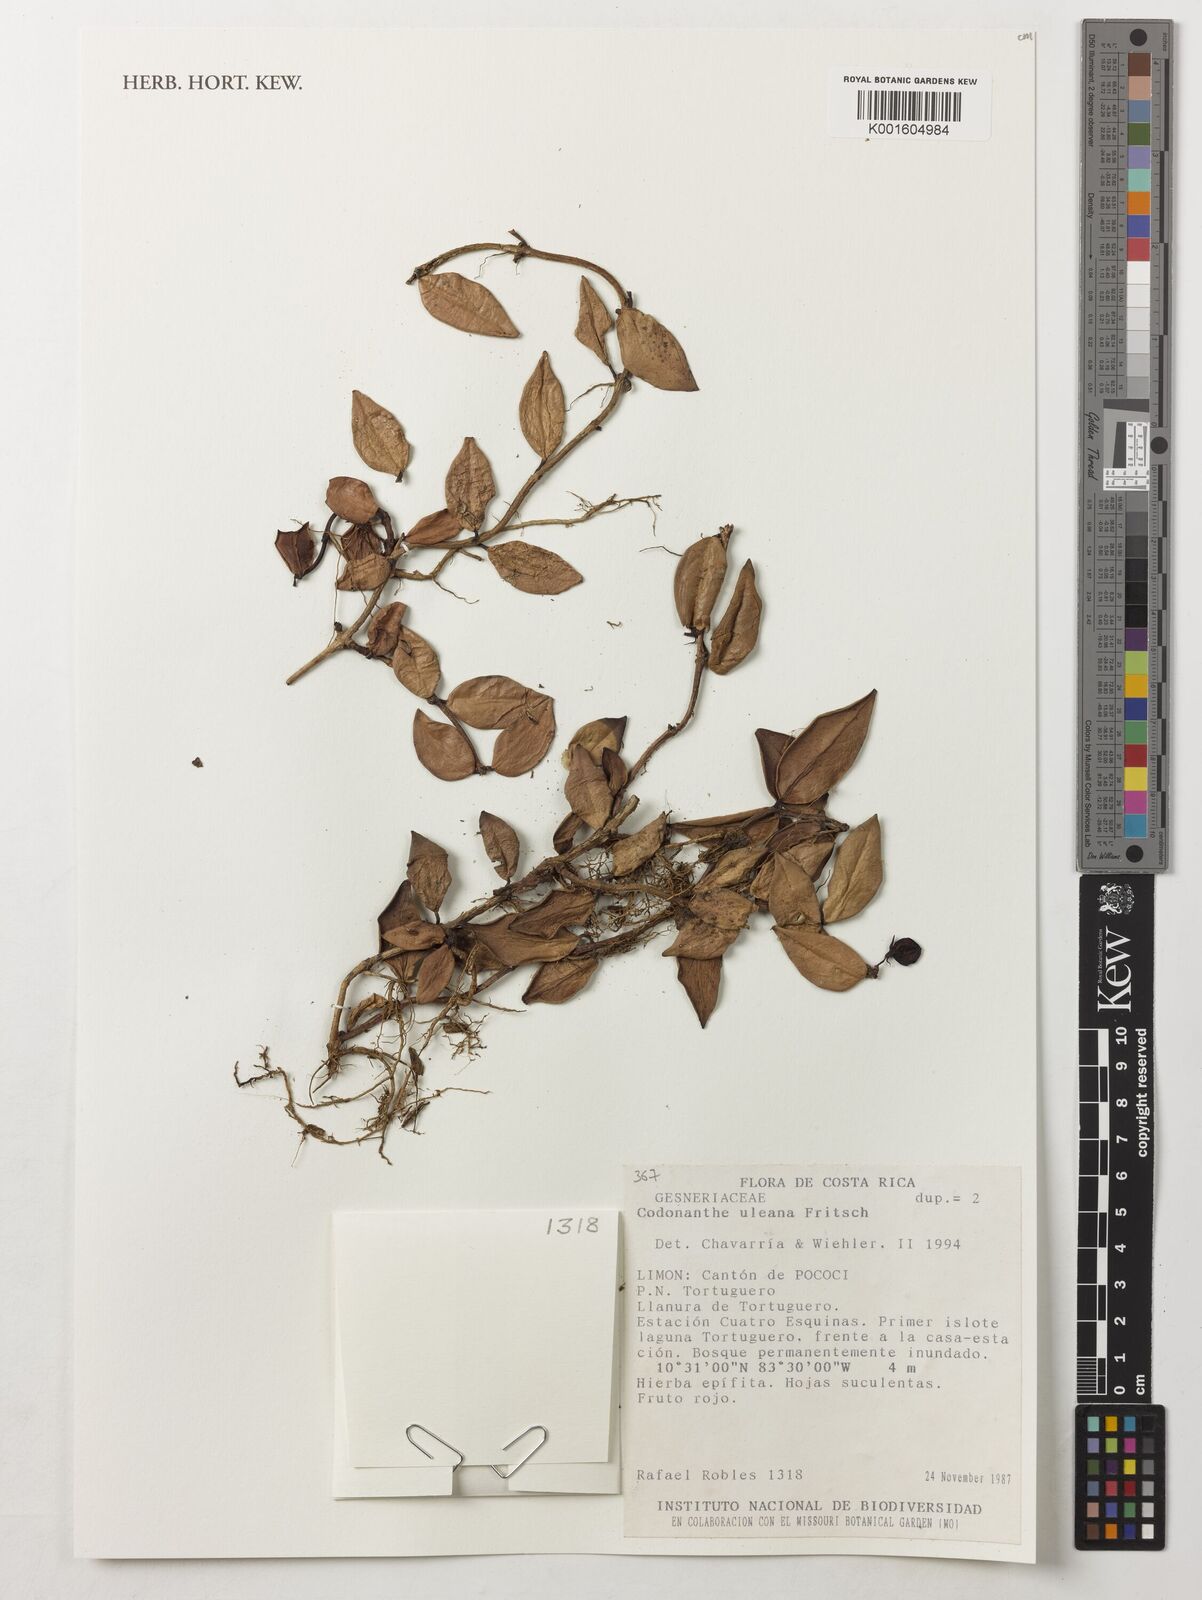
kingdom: Plantae
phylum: Tracheophyta
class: Magnoliopsida
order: Lamiales
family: Gesneriaceae
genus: Codonanthopsis
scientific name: Codonanthopsis uleana
